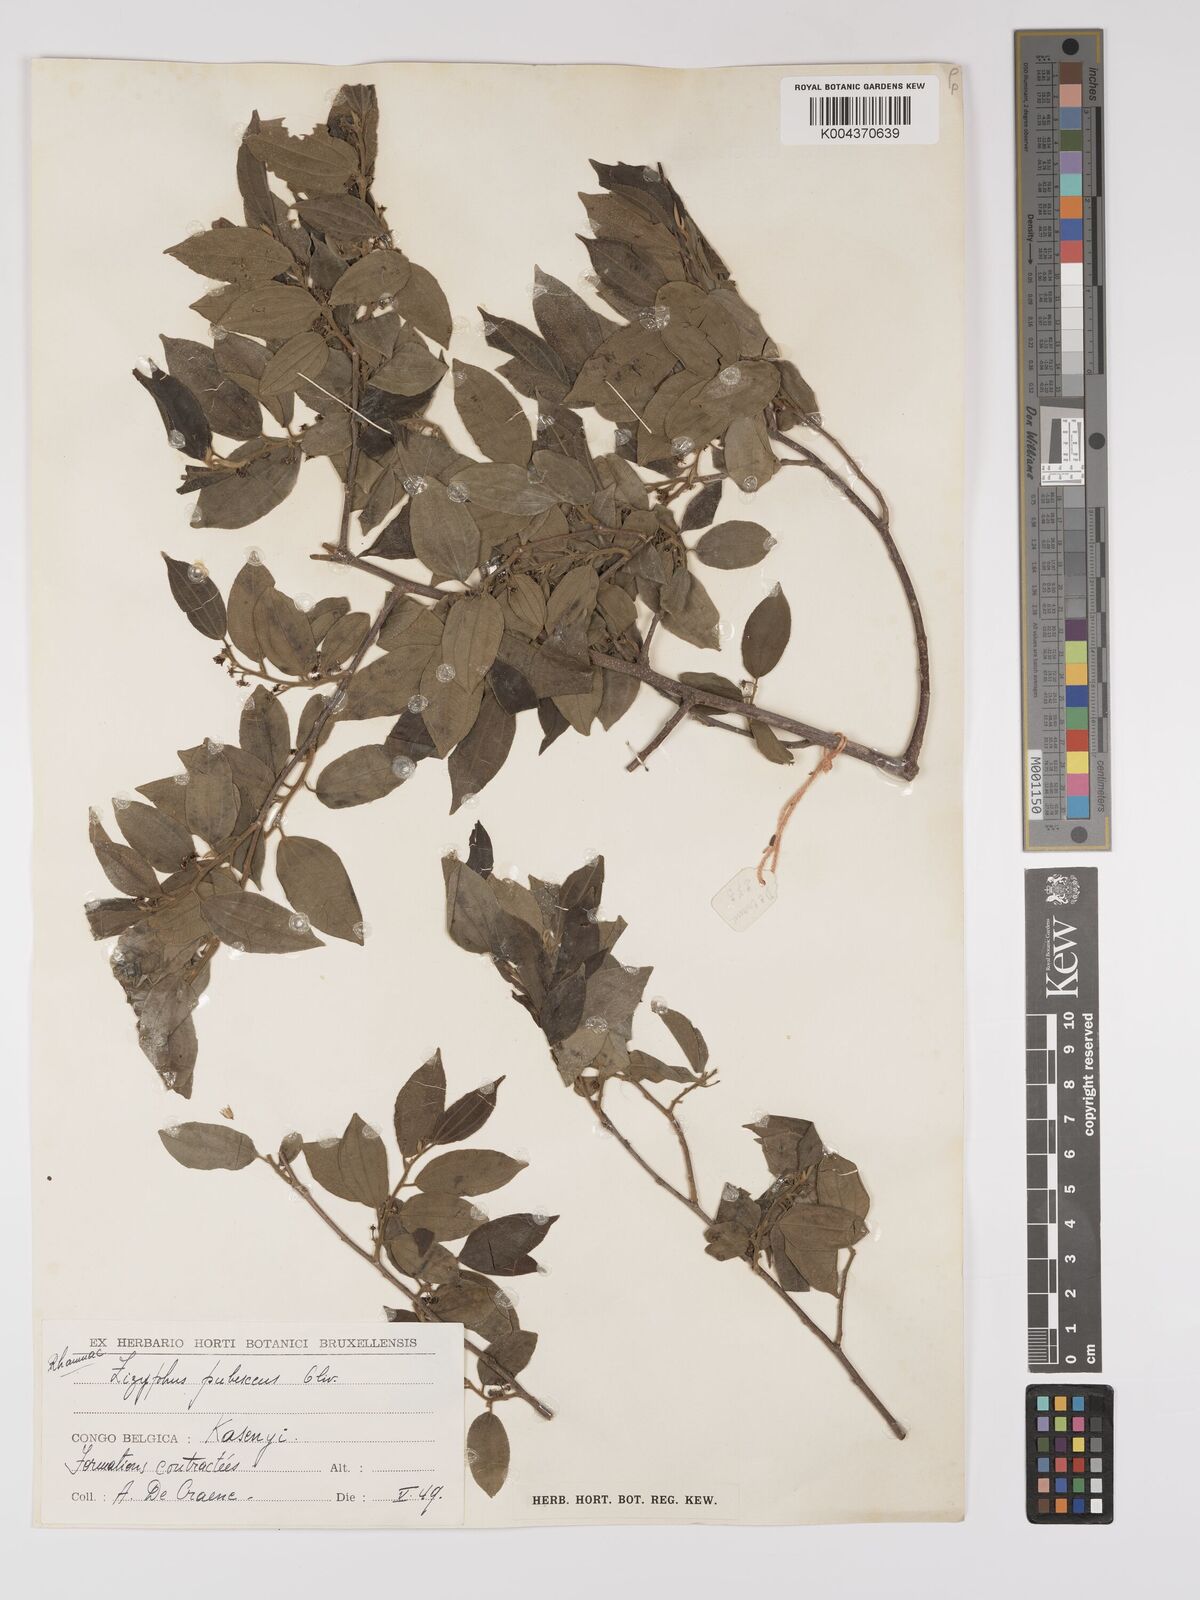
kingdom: Plantae
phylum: Tracheophyta
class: Magnoliopsida
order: Rosales
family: Rhamnaceae
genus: Ziziphus
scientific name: Ziziphus pubescens
